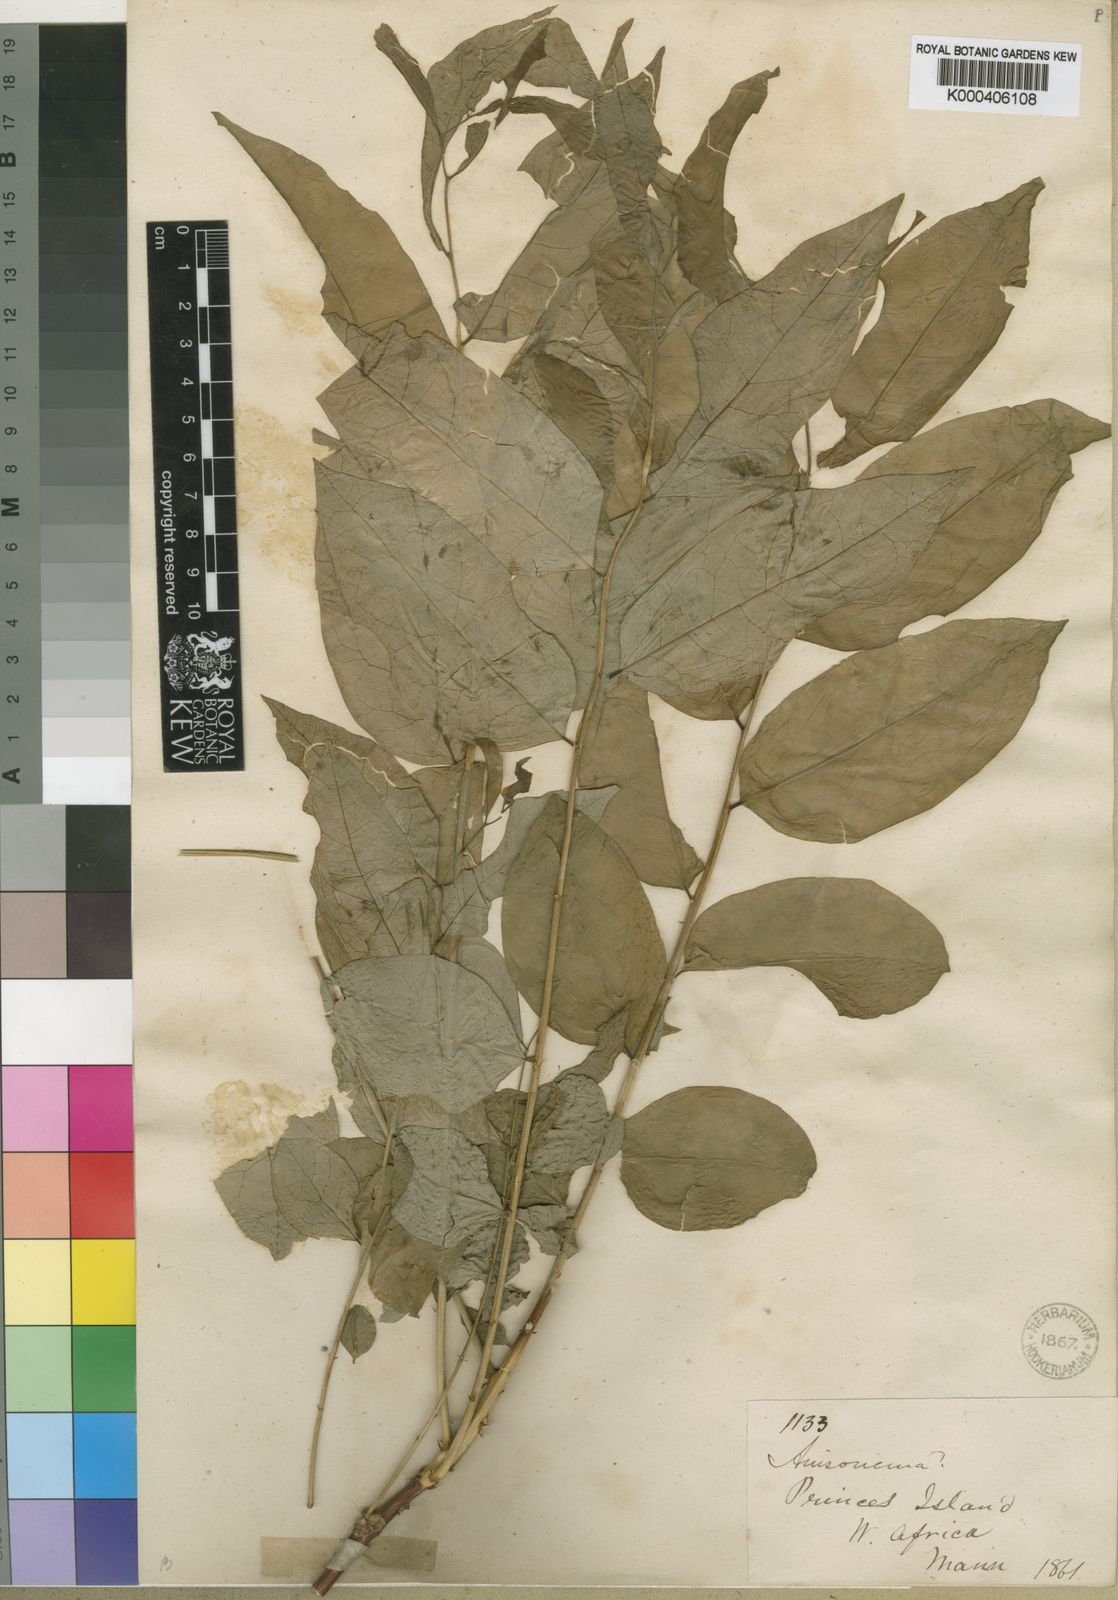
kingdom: Plantae
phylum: Tracheophyta
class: Magnoliopsida
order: Malpighiales
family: Phyllanthaceae
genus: Phyllanthus
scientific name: Phyllanthus
